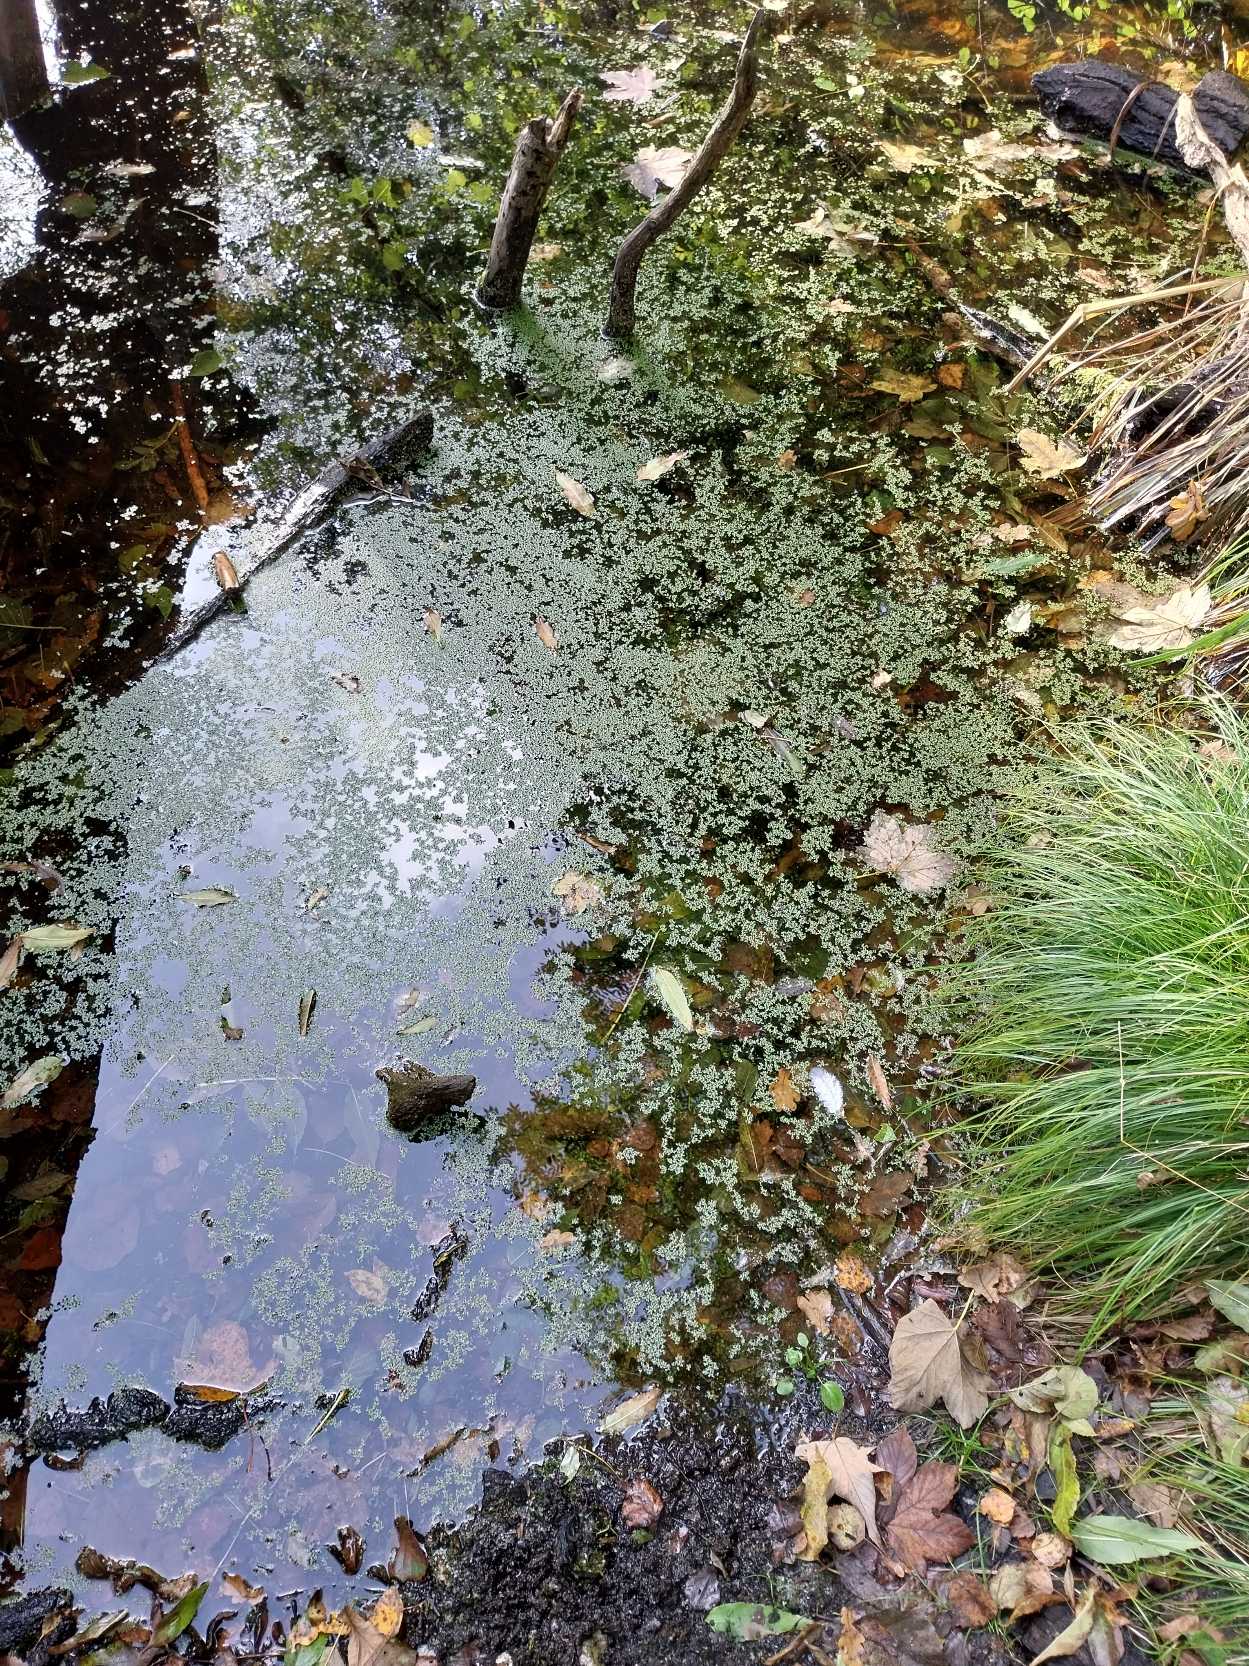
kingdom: Plantae
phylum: Tracheophyta
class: Liliopsida
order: Alismatales
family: Araceae
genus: Lemna
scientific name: Lemna minuta
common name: Enstrenget andemad
